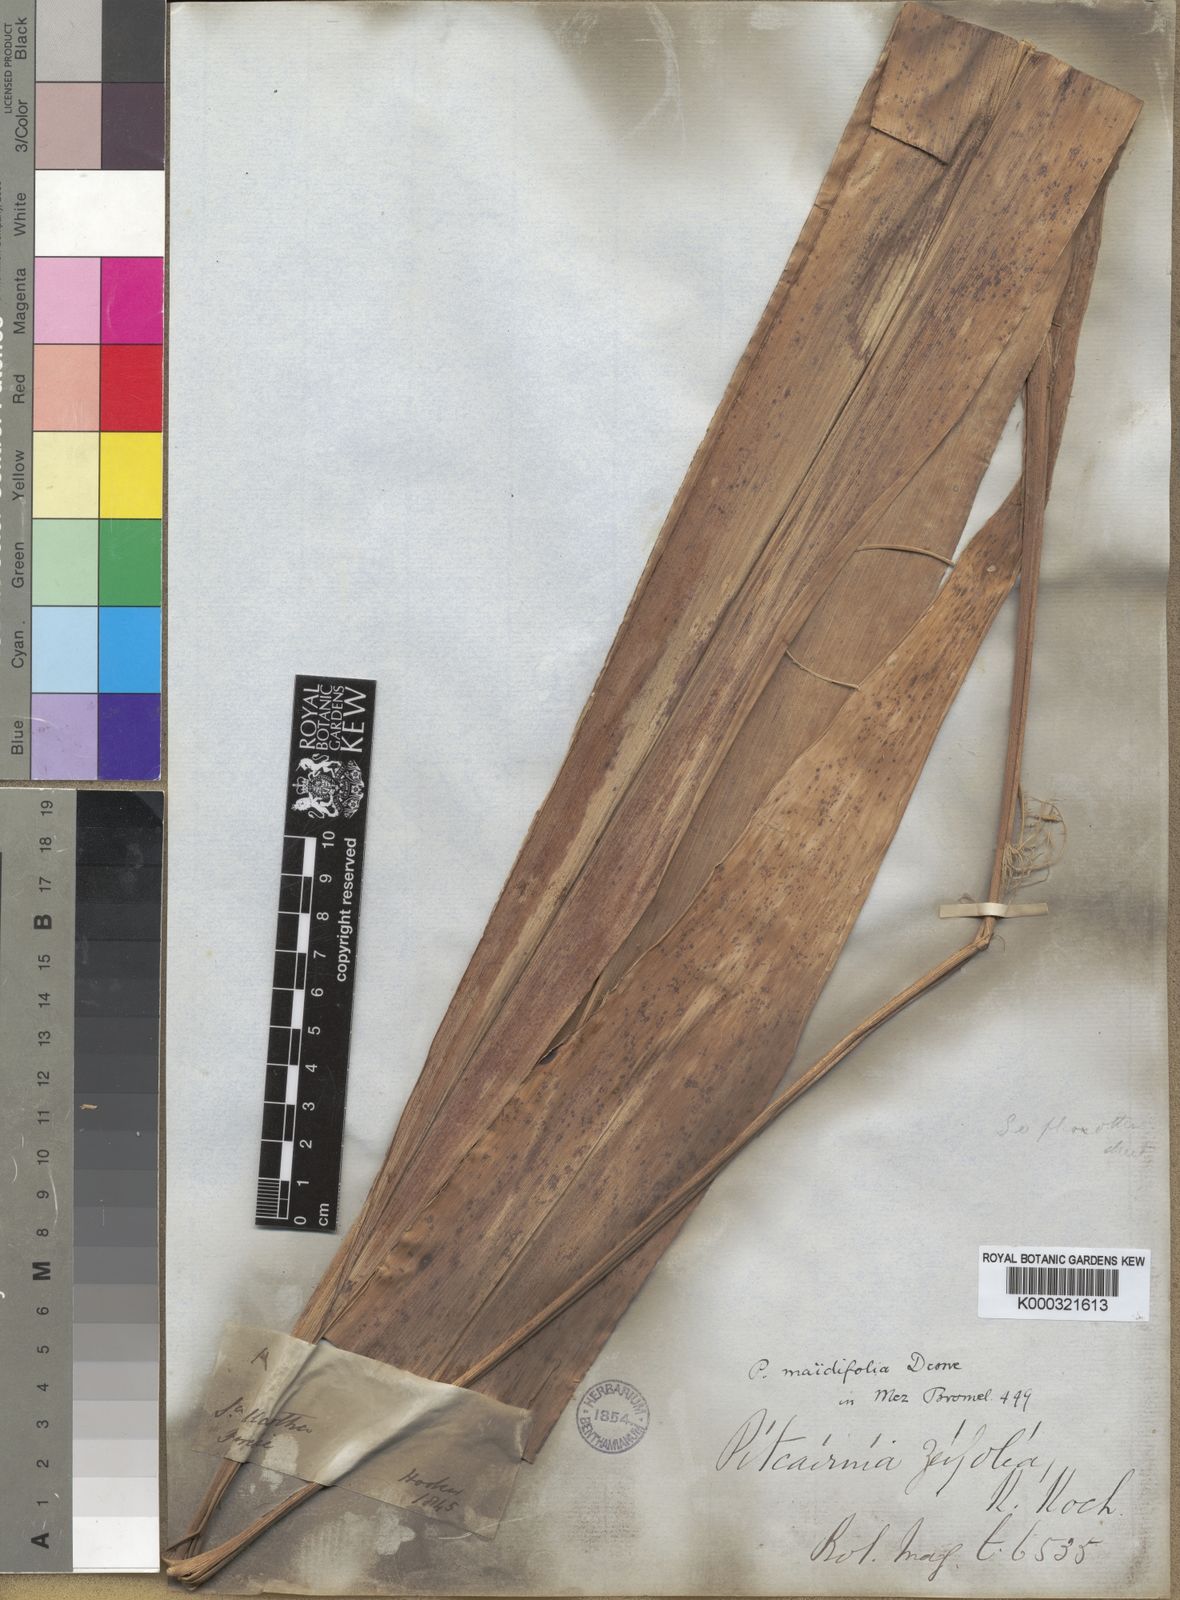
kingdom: Plantae
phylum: Tracheophyta
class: Liliopsida
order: Poales
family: Bromeliaceae
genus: Pitcairnia
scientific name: Pitcairnia maidifolia
